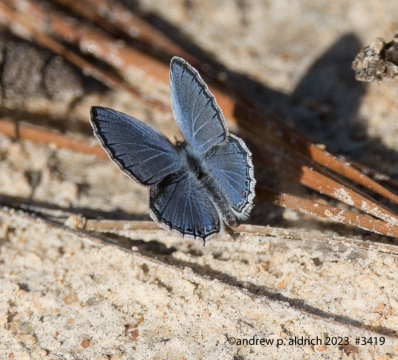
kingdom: Animalia
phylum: Arthropoda
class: Insecta
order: Lepidoptera
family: Lycaenidae
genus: Elkalyce
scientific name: Elkalyce comyntas
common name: Eastern Tailed-Blue
